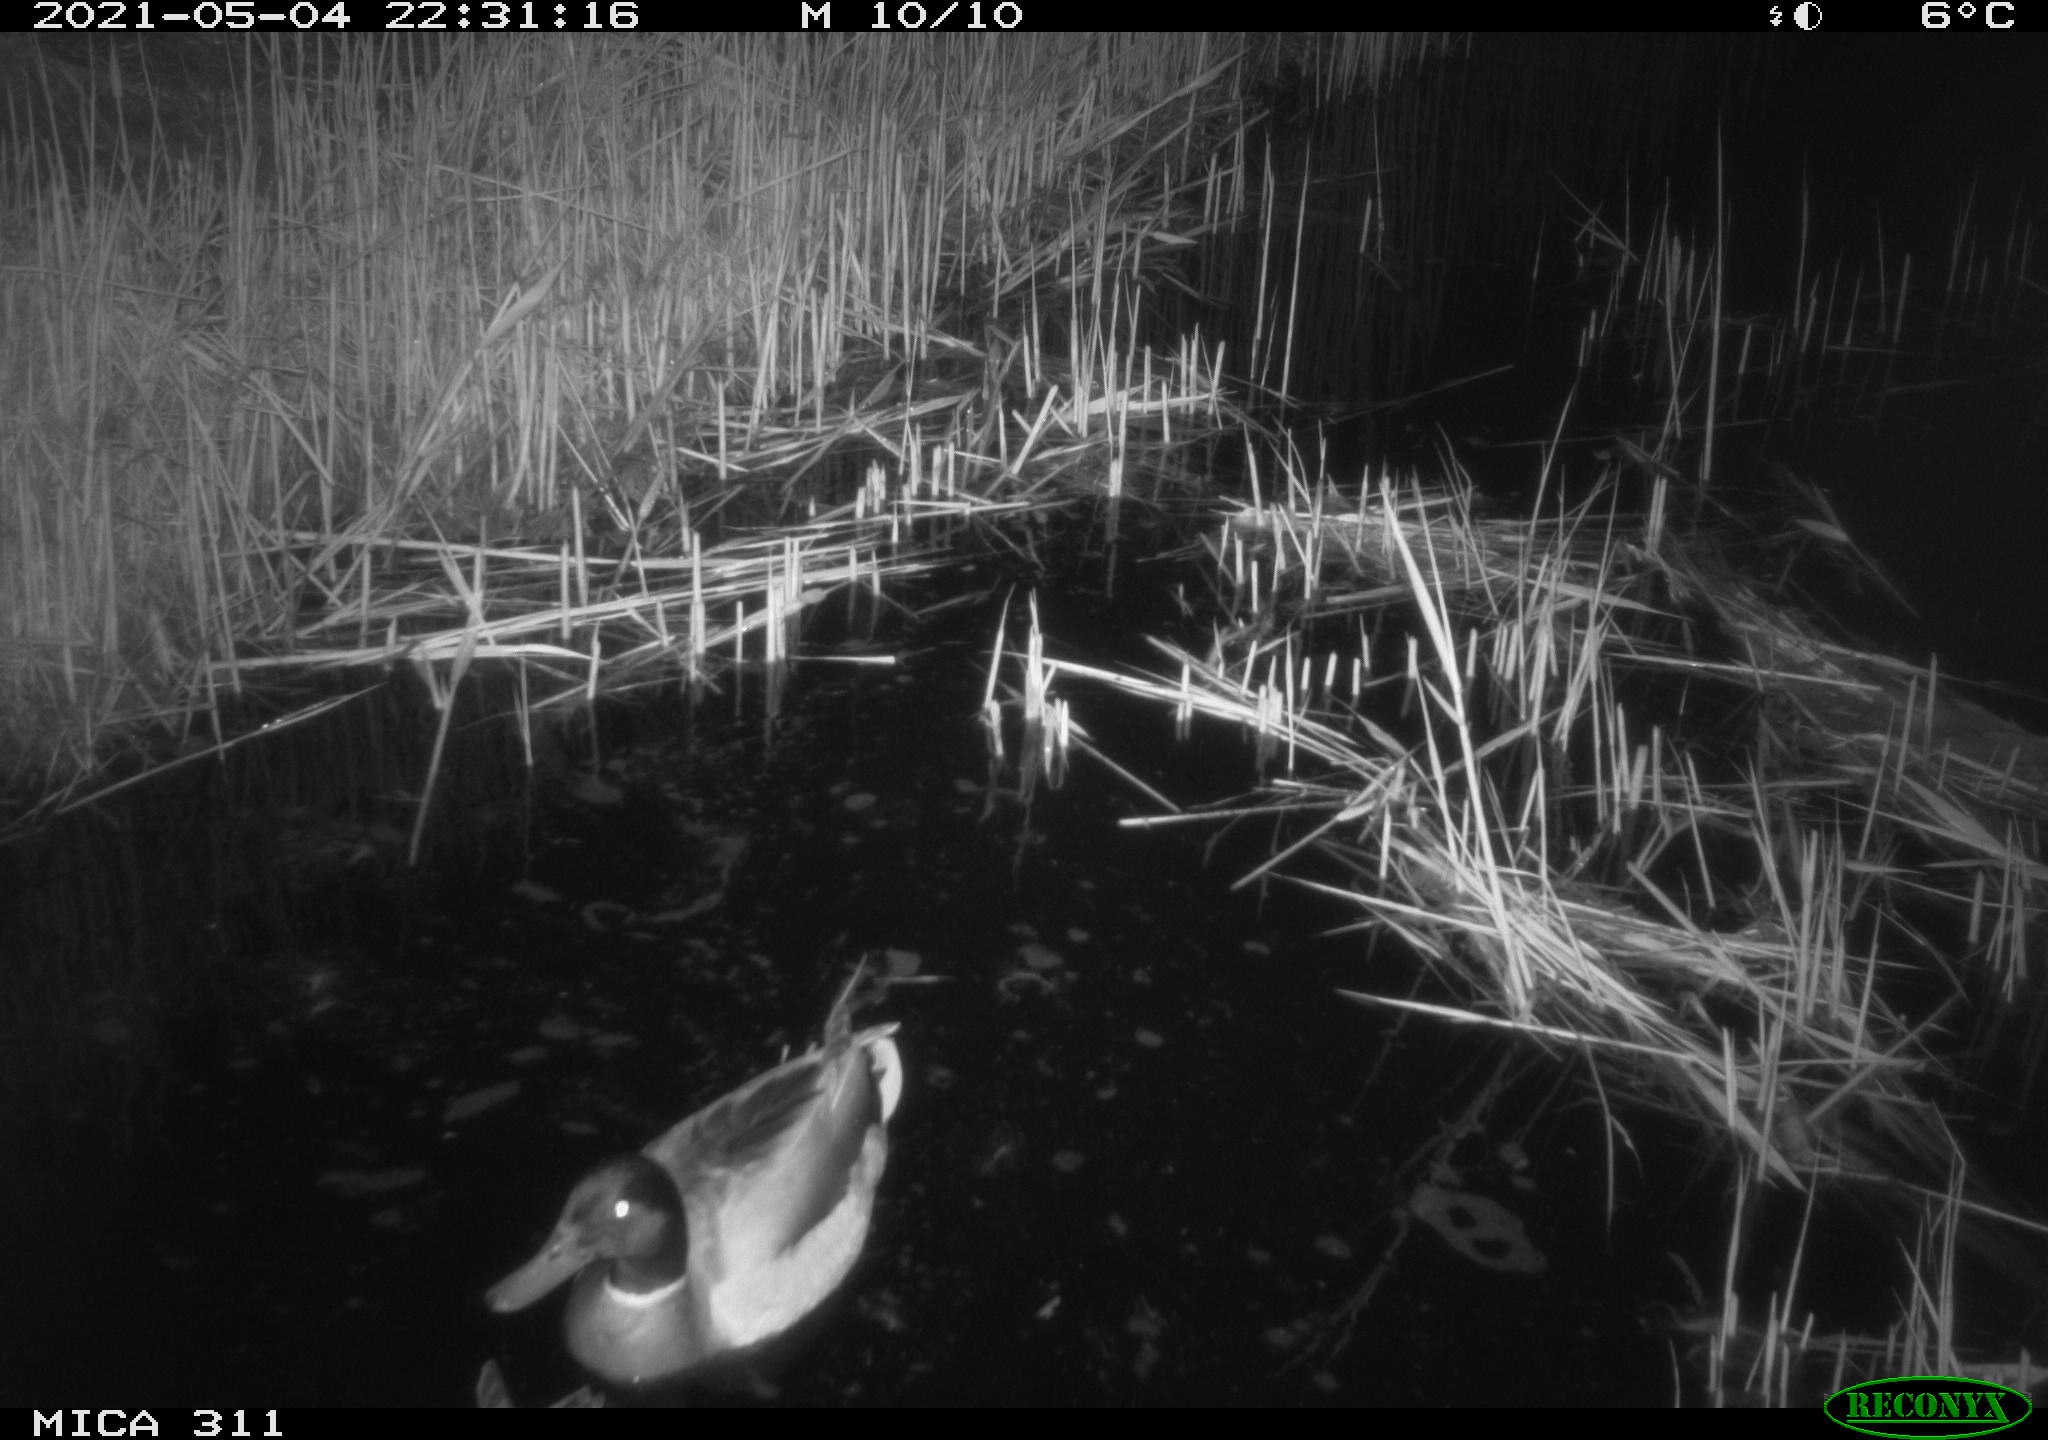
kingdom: Animalia
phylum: Chordata
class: Aves
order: Anseriformes
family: Anatidae
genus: Anas
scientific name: Anas
